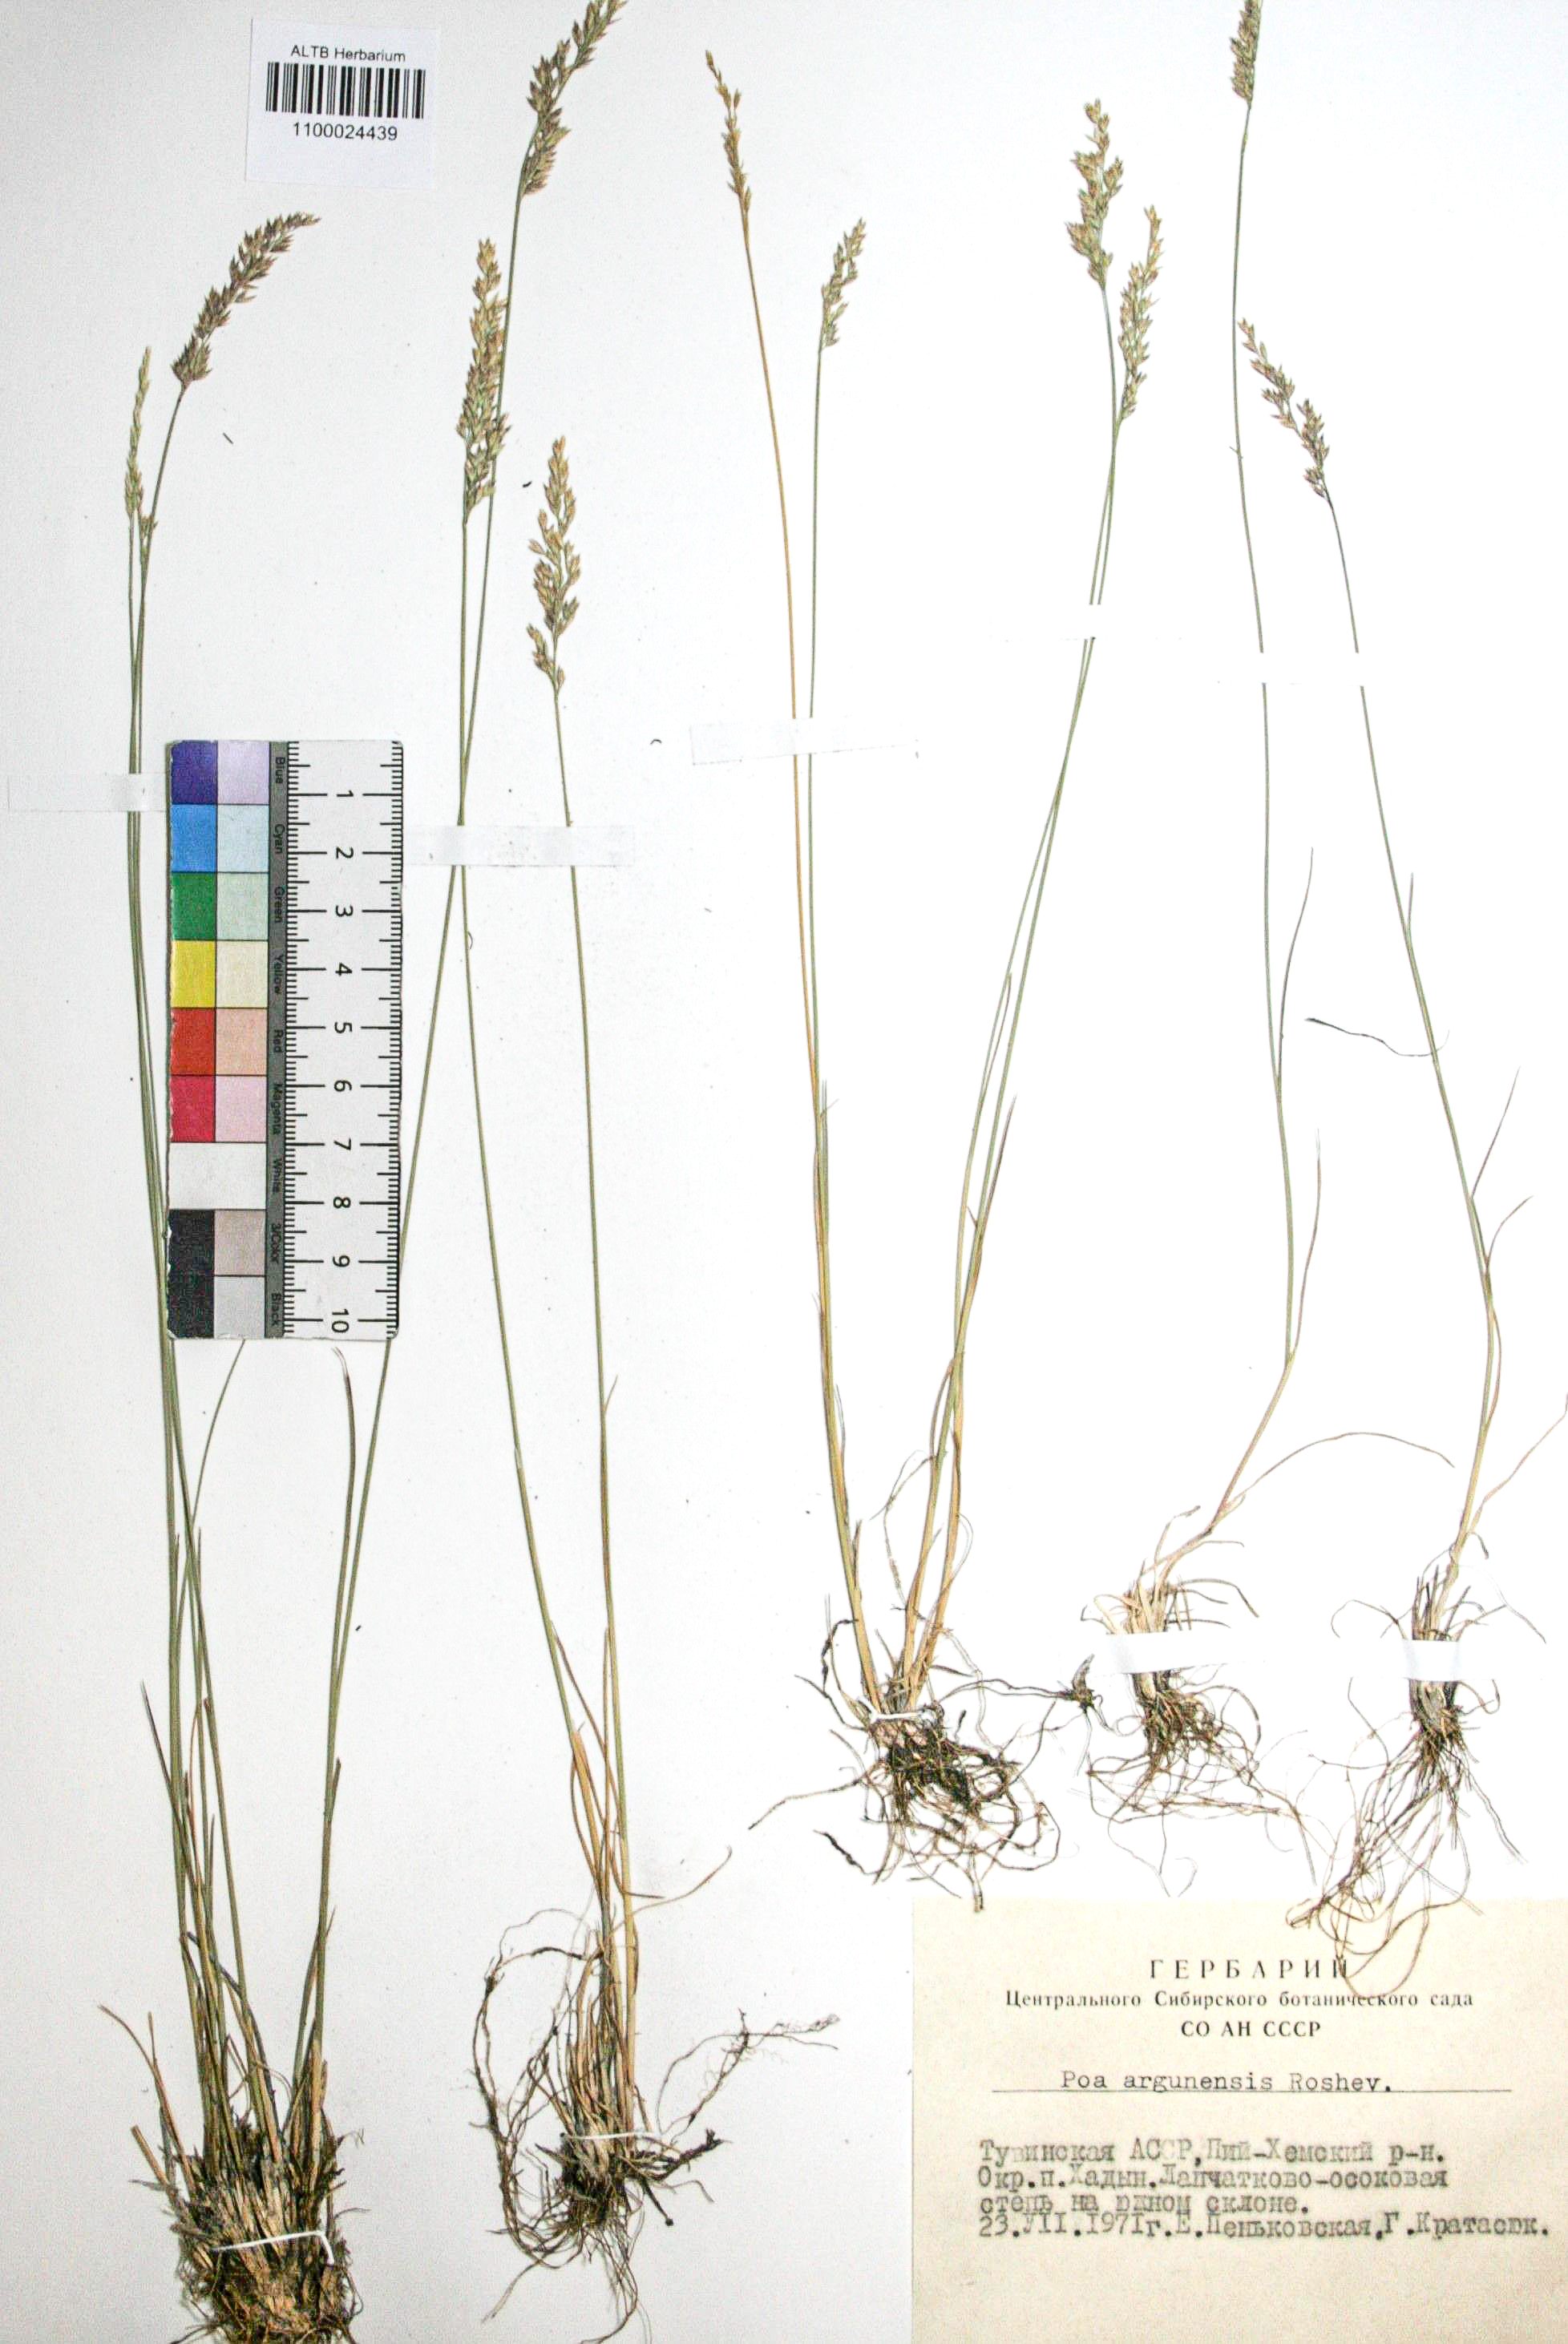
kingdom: Plantae
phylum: Tracheophyta
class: Liliopsida
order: Poales
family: Poaceae
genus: Poa
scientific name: Poa attenuata
